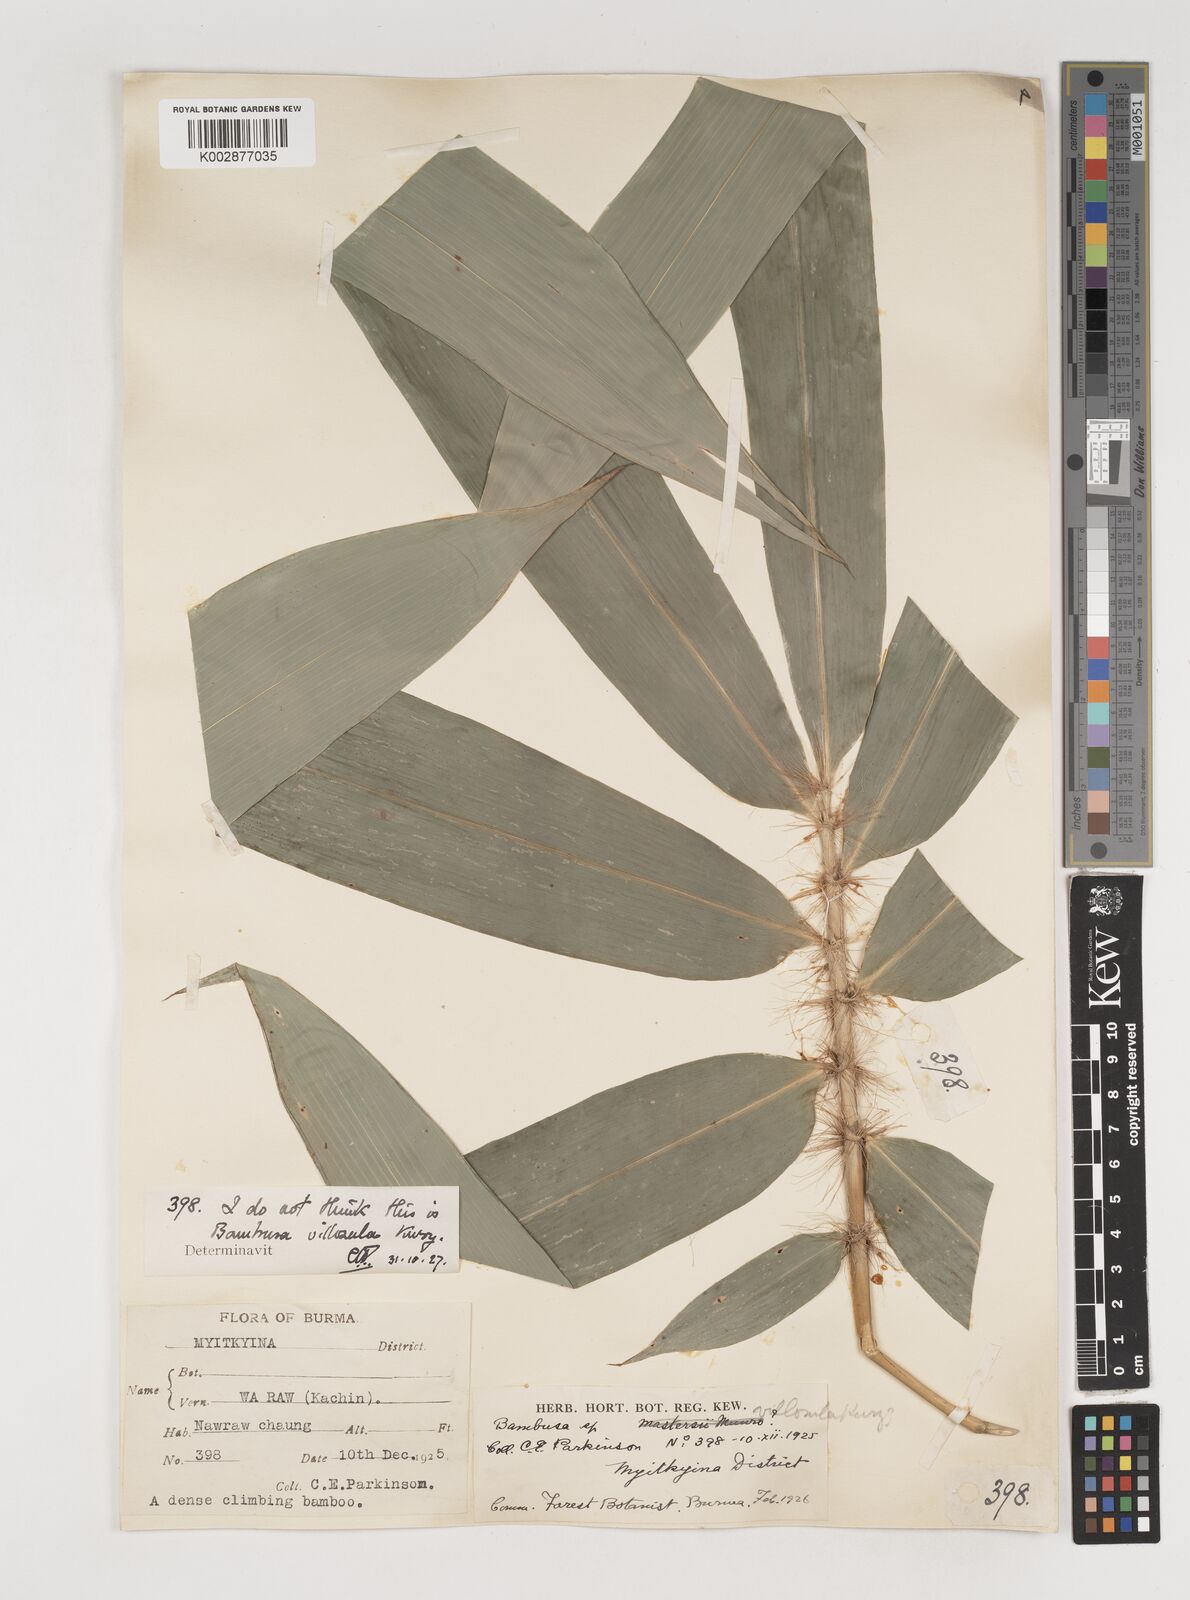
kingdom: Plantae
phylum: Tracheophyta
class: Liliopsida
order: Poales
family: Poaceae
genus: Bambusa
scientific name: Bambusa villosula
